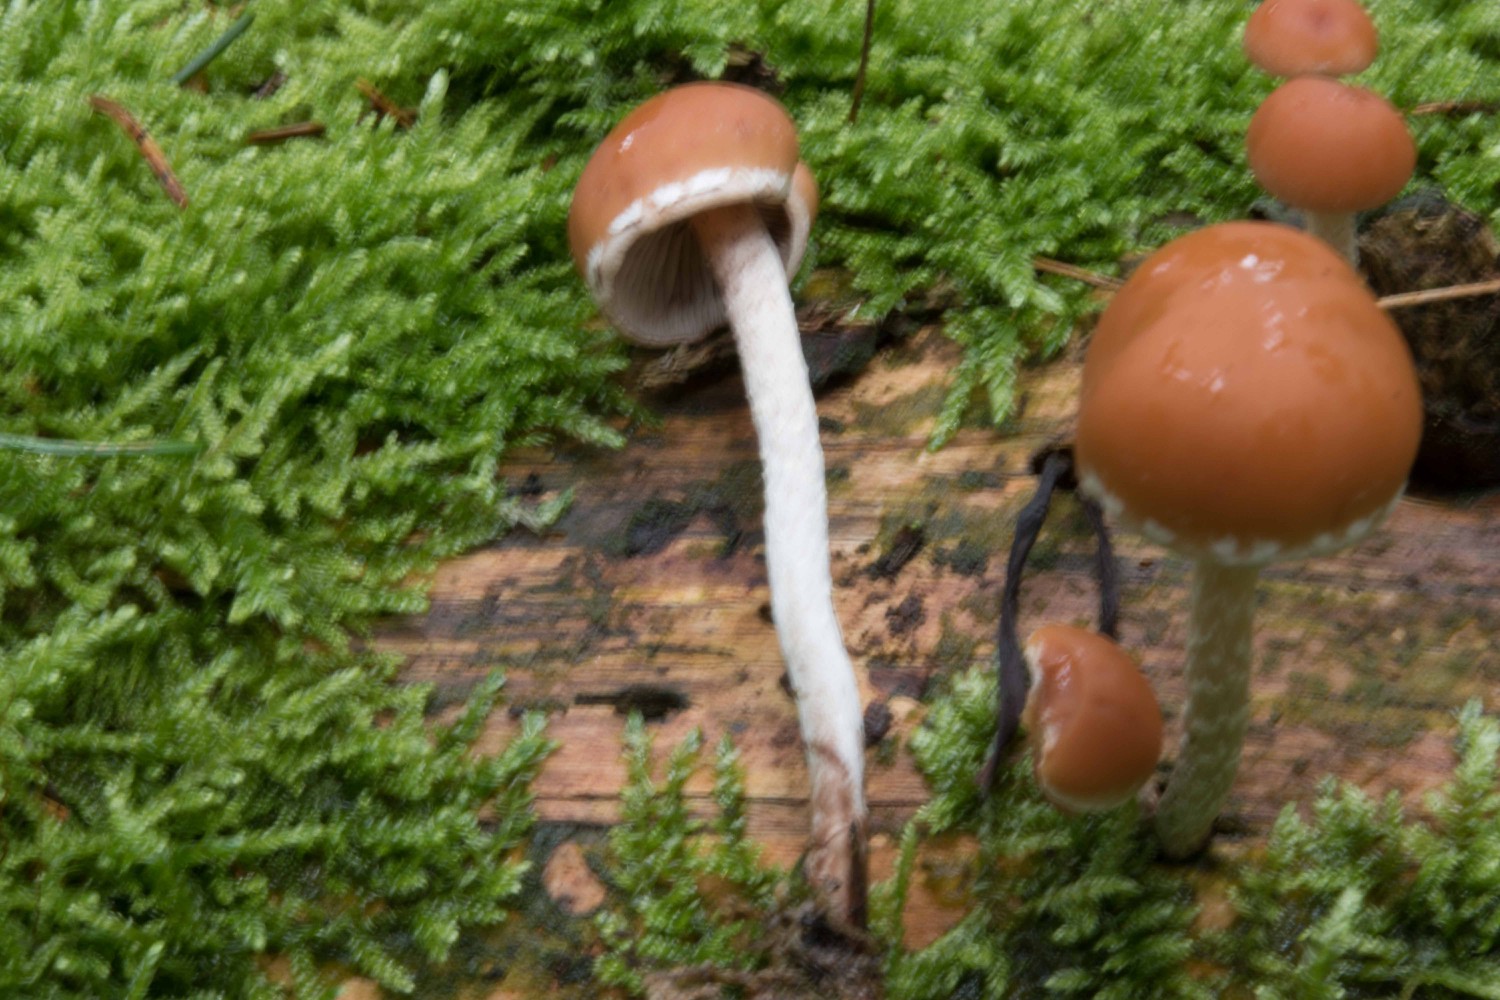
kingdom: Fungi
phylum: Basidiomycota
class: Agaricomycetes
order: Agaricales
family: Strophariaceae
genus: Hypholoma
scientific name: Hypholoma marginatum
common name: enlig svovlhat
